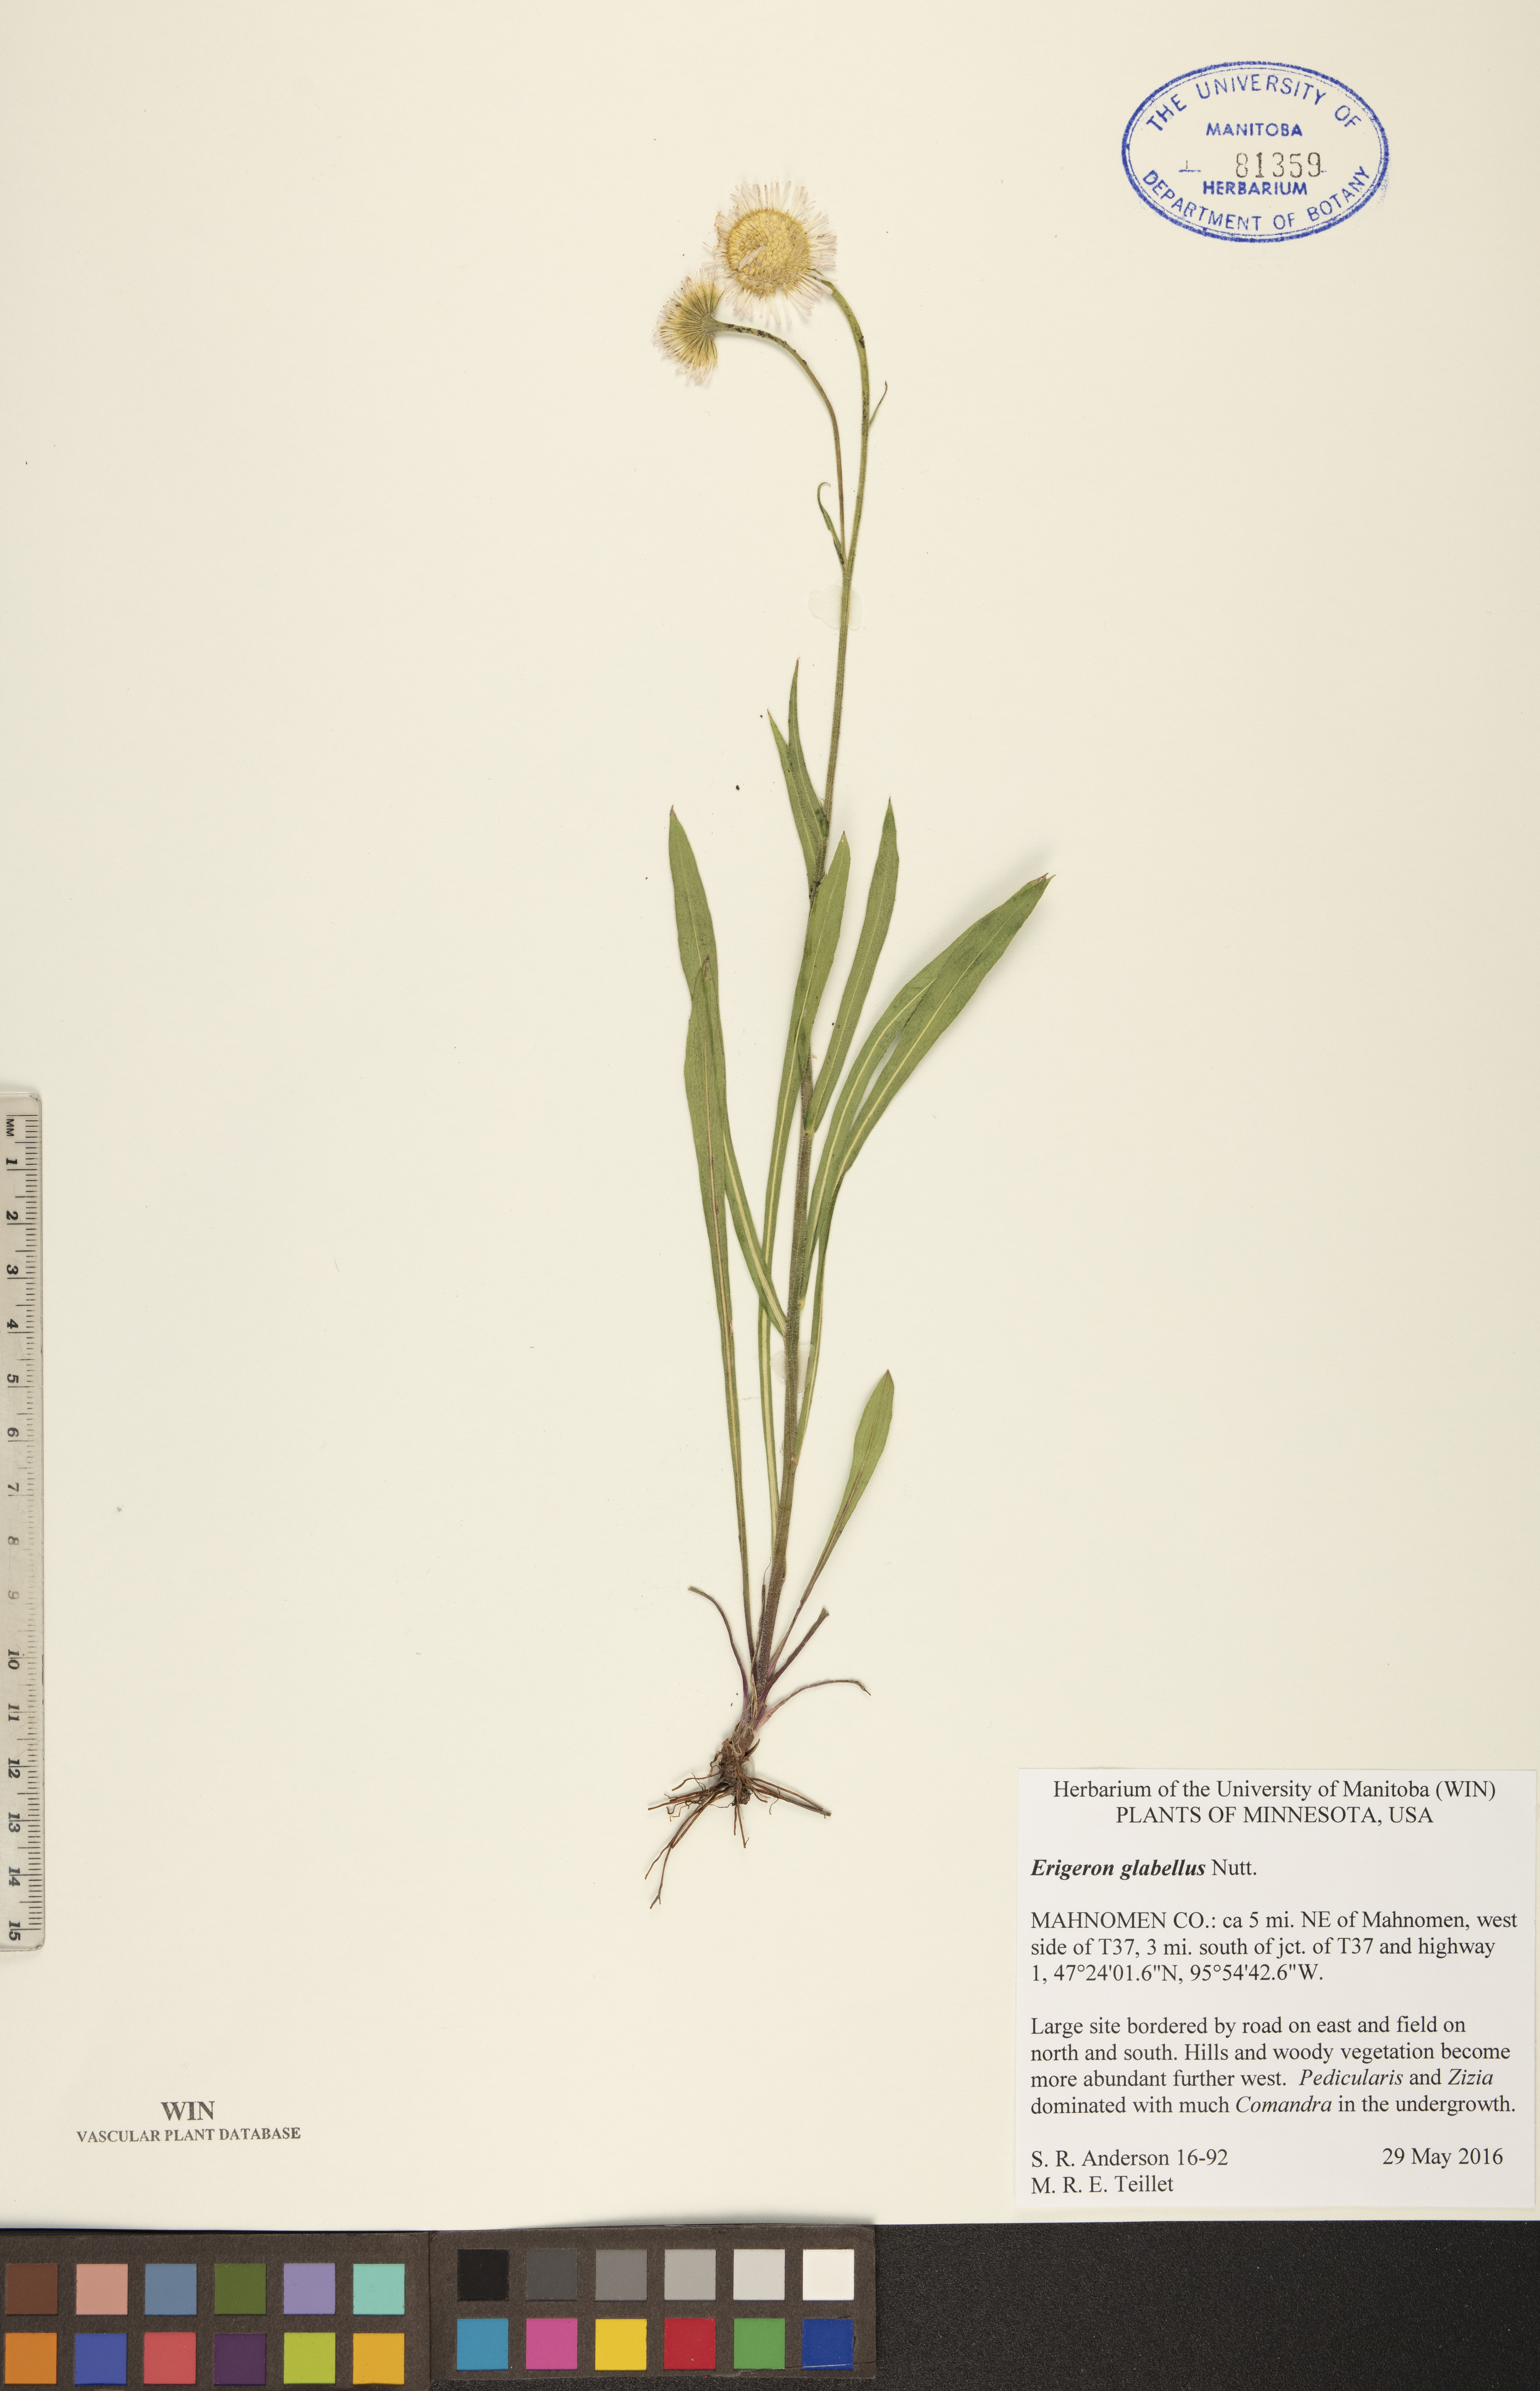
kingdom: Plantae
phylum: Tracheophyta
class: Magnoliopsida
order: Asterales
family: Asteraceae
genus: Erigeron
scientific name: Erigeron glabellus
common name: Smooth fleabane
